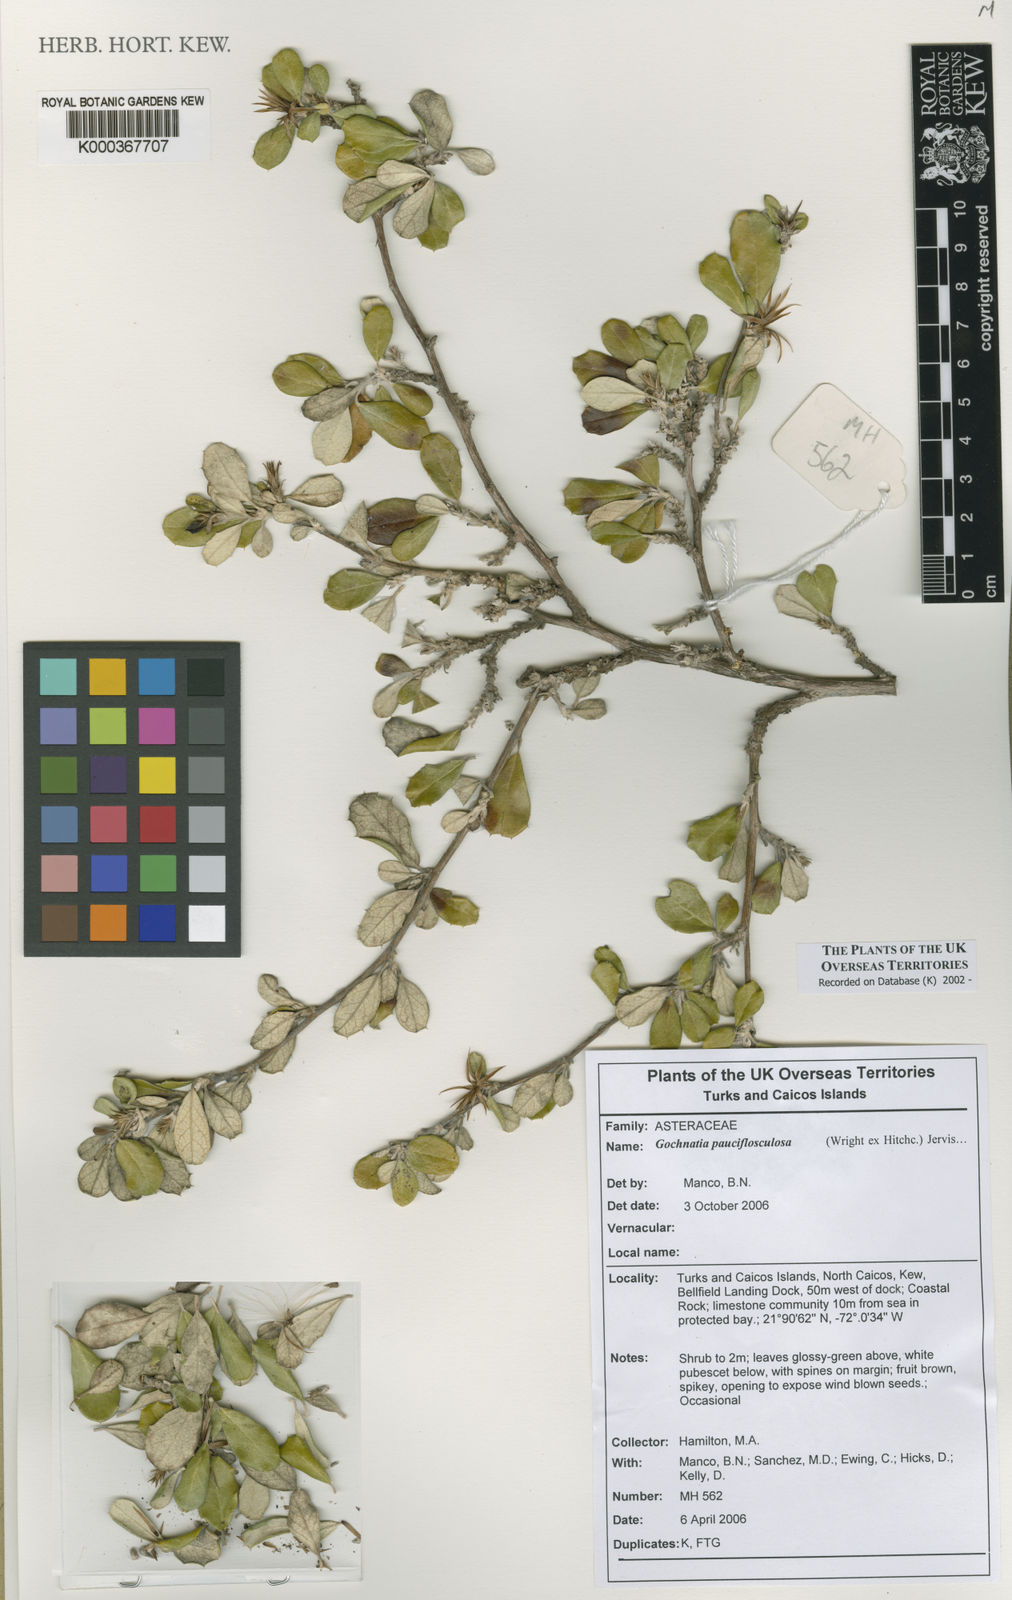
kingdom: Plantae
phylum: Tracheophyta
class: Magnoliopsida
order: Asterales
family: Asteraceae
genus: Anastraphia
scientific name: Anastraphia pauciflosculosa
